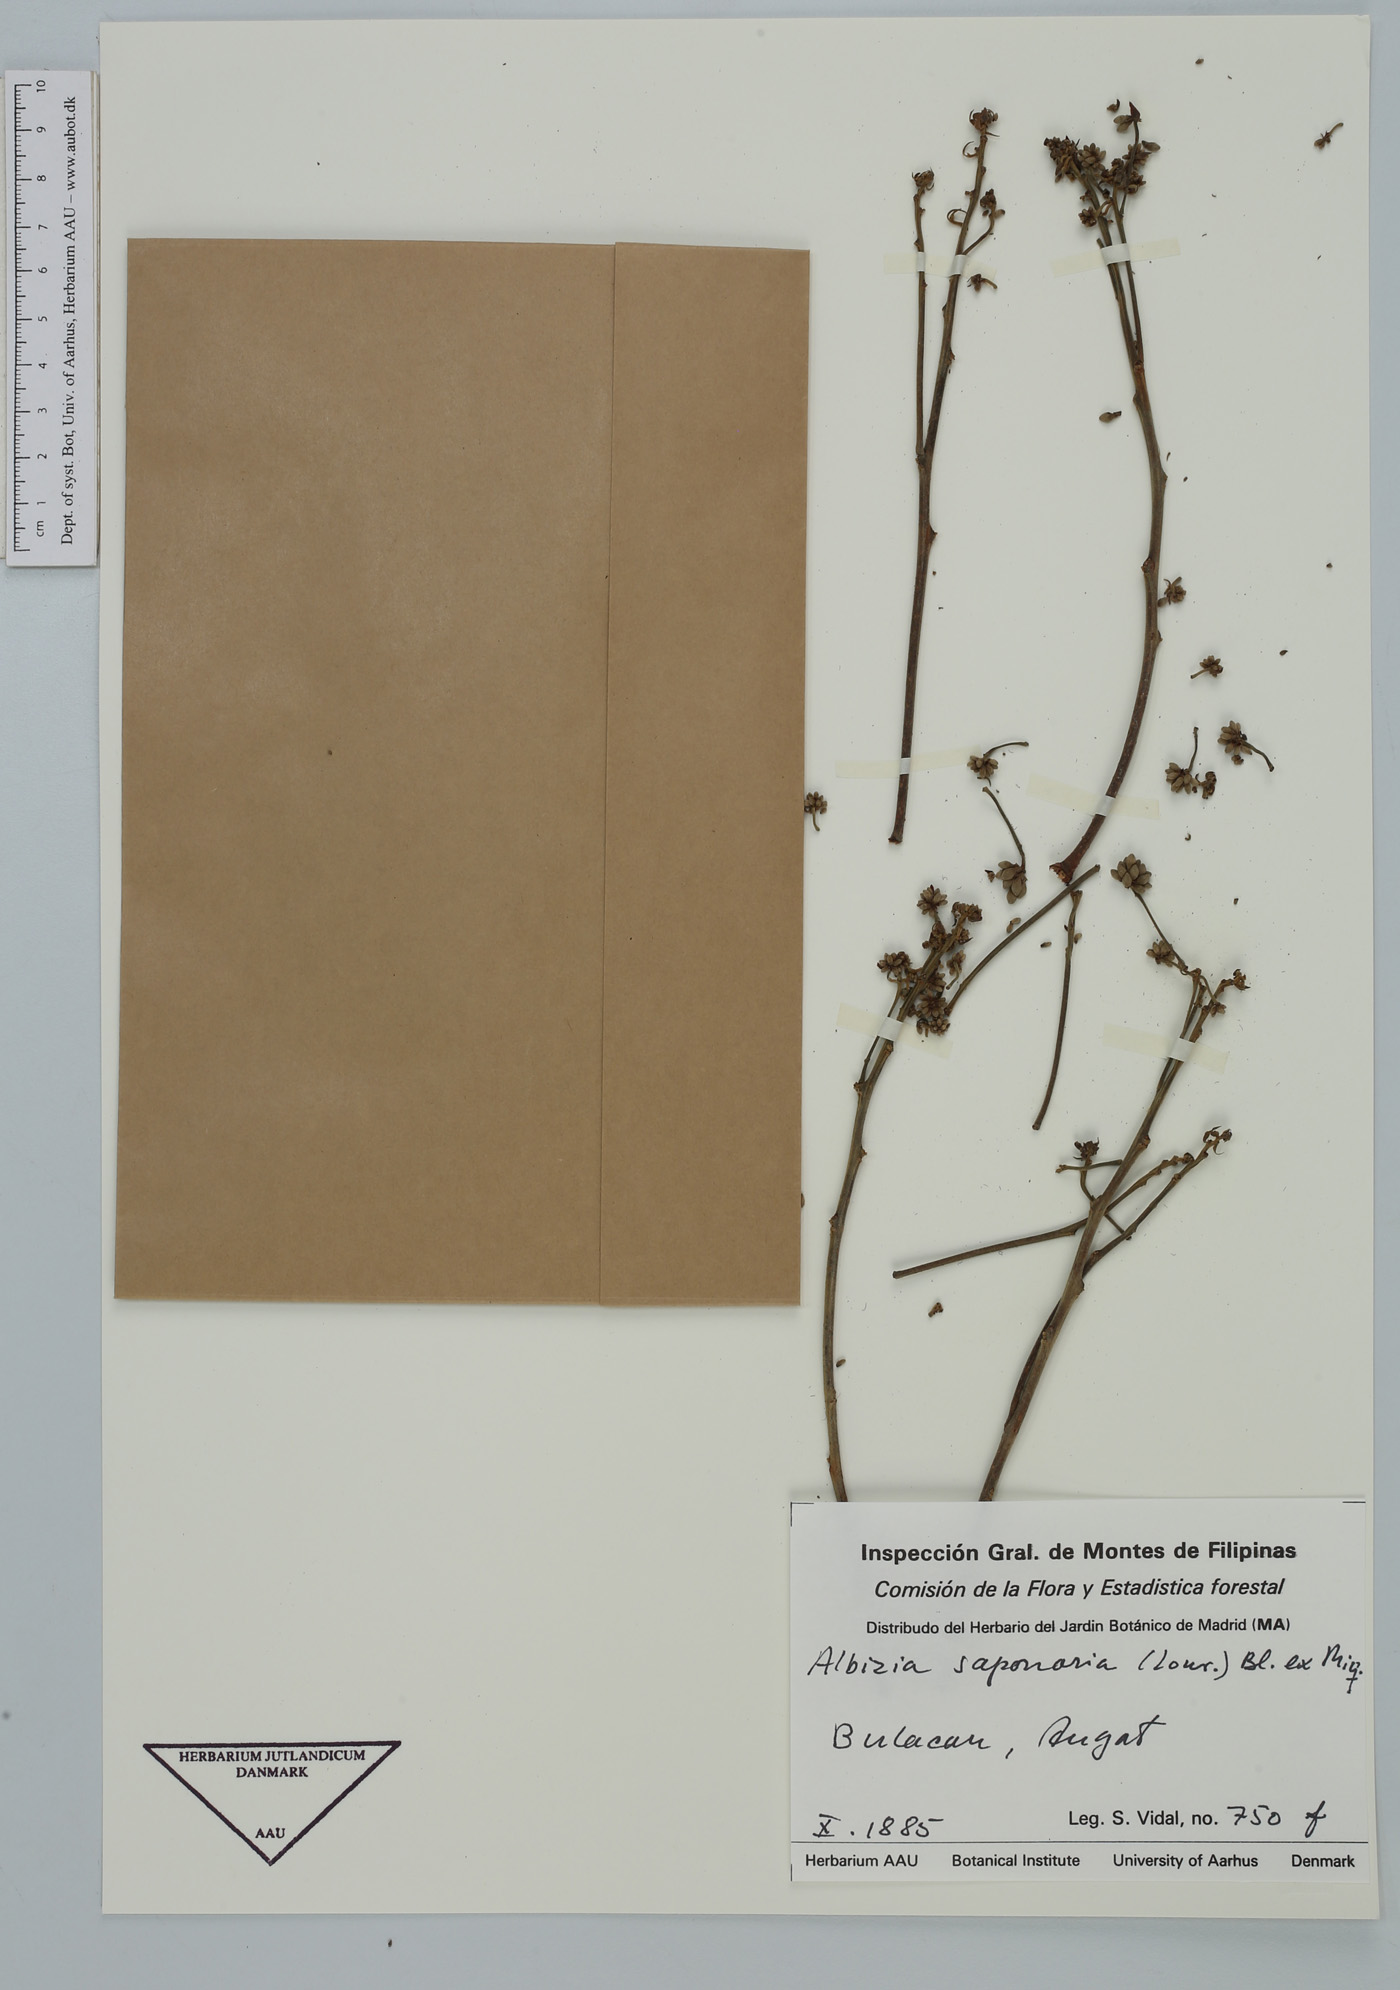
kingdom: Plantae
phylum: Tracheophyta
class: Magnoliopsida
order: Fabales
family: Fabaceae
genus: Albizia
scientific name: Albizia saponaria
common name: Whiteflower albizia
